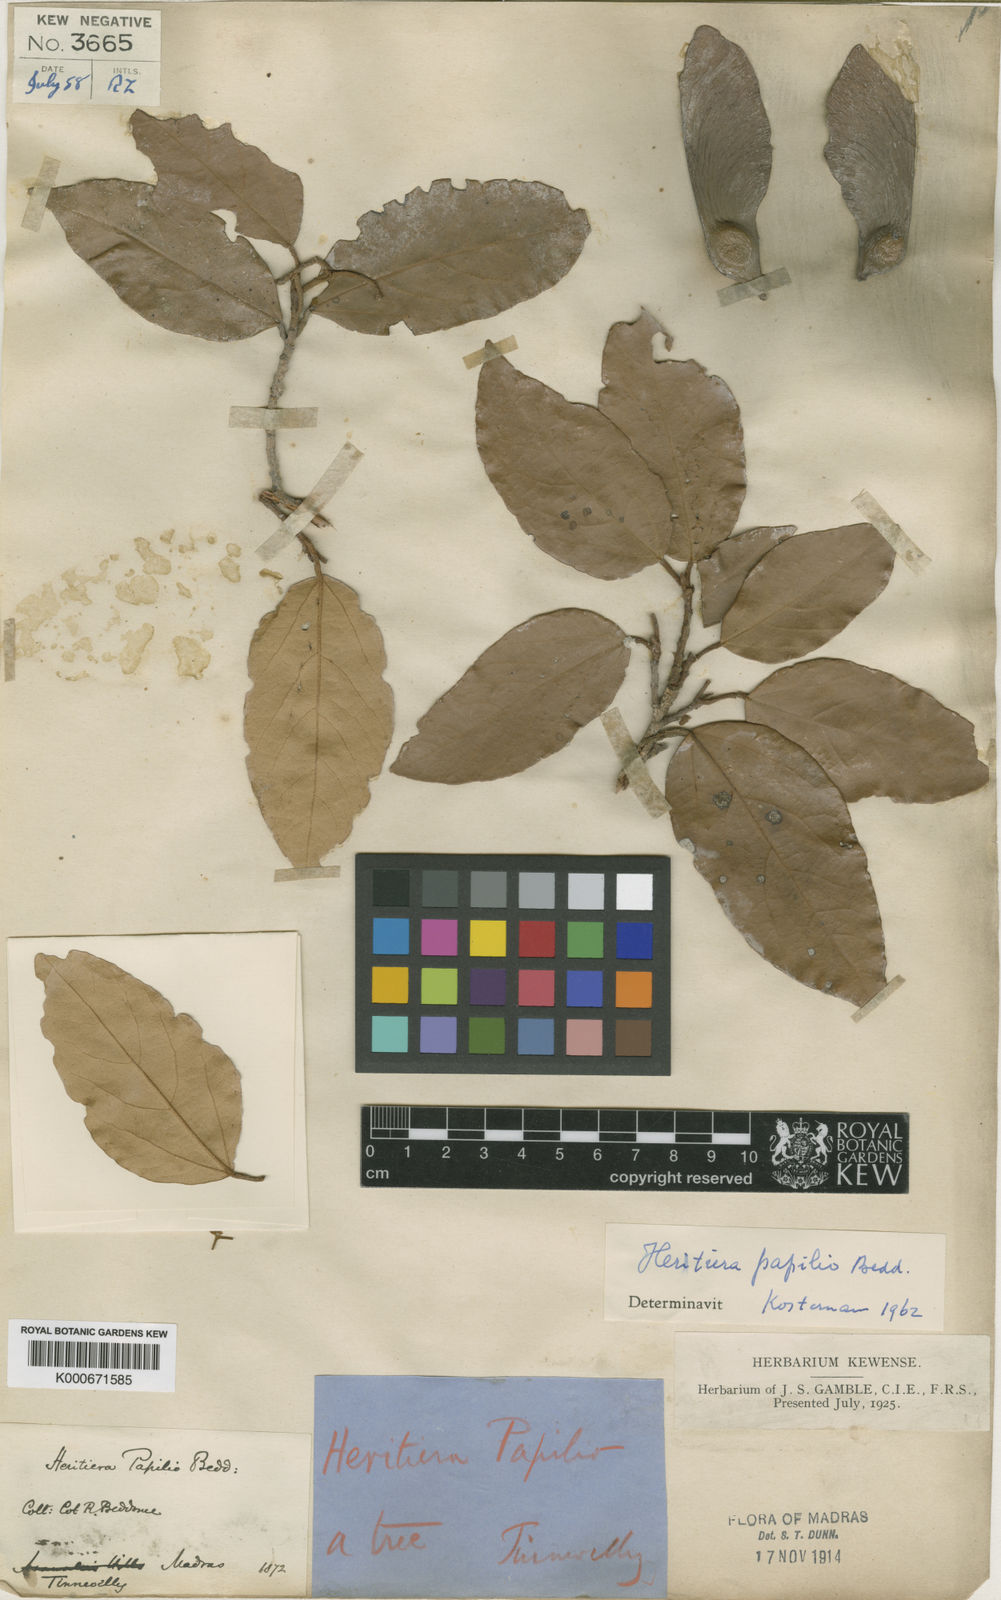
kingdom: Plantae
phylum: Tracheophyta
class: Magnoliopsida
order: Malvales
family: Malvaceae
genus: Heritiera
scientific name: Heritiera macrophylla
